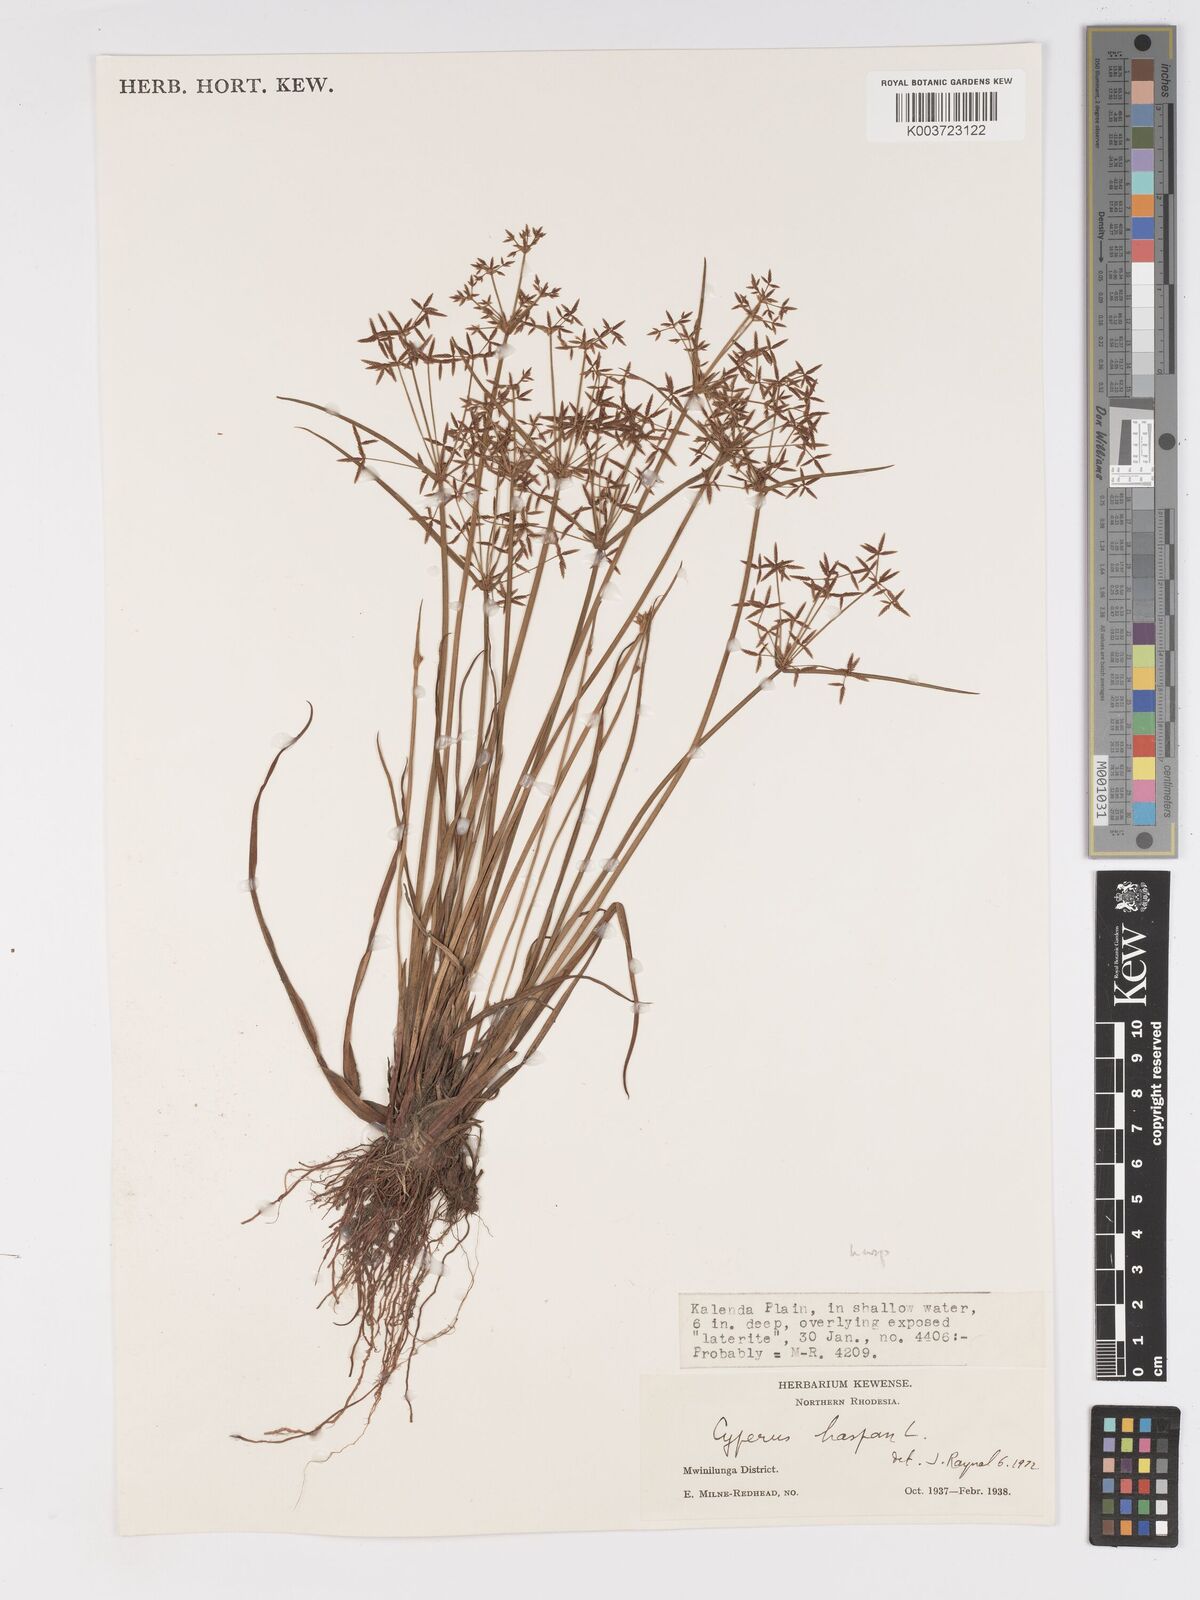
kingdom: Plantae
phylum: Tracheophyta
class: Liliopsida
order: Poales
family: Cyperaceae
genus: Cyperus
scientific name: Cyperus haspan
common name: Haspan flatsedge
